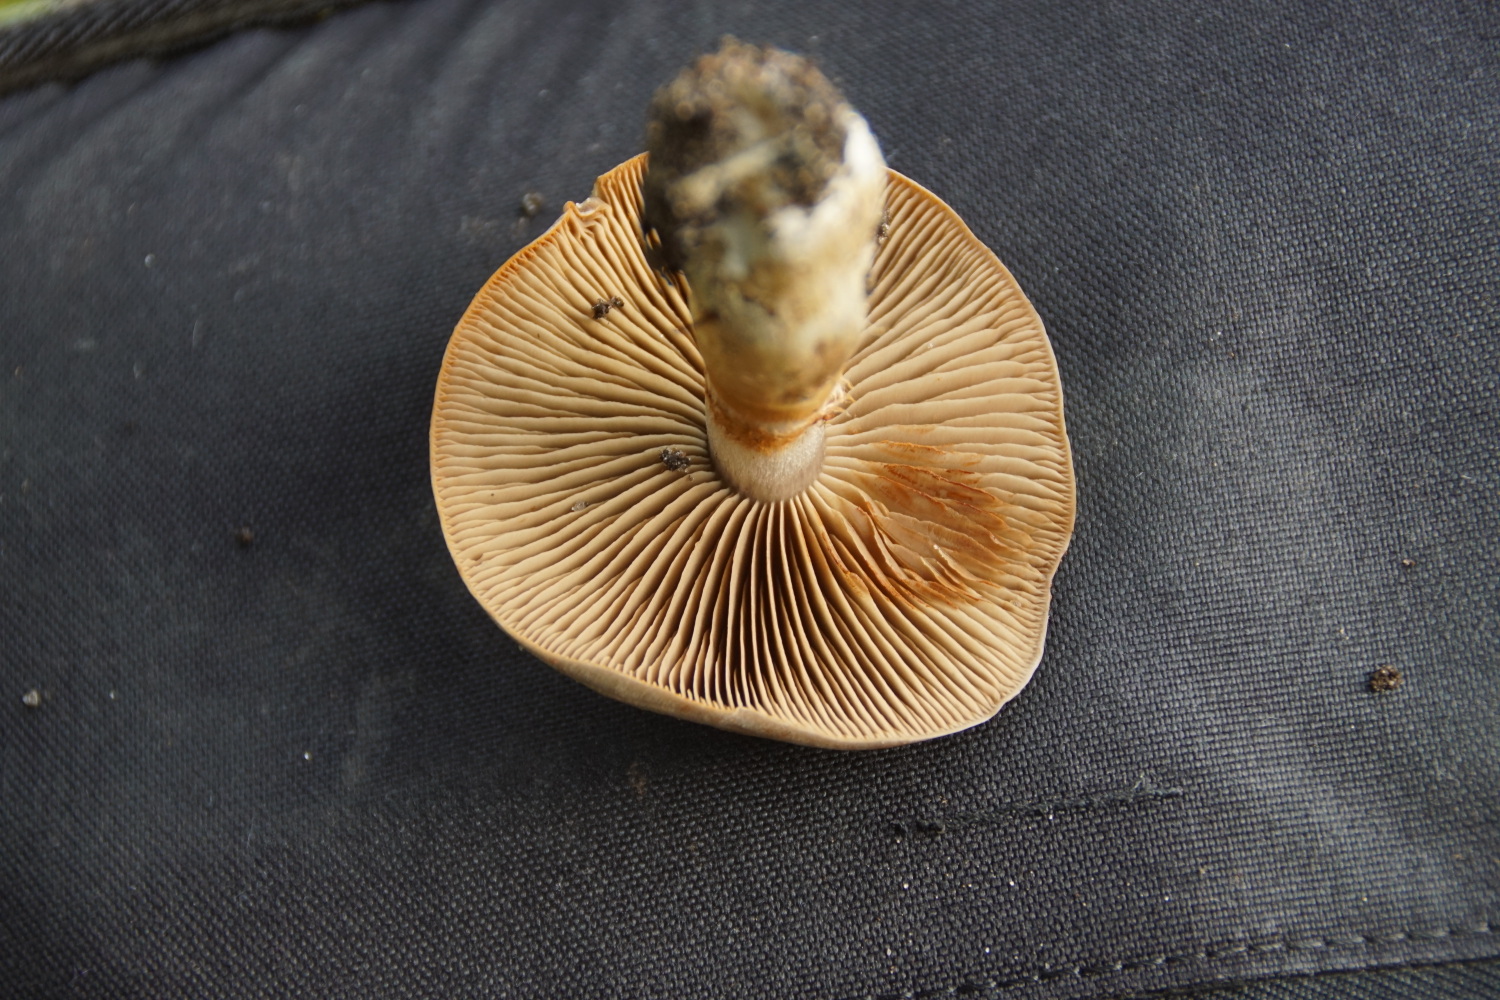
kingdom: Fungi
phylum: Basidiomycota
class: Agaricomycetes
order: Agaricales
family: Cortinariaceae
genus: Cortinarius
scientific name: Cortinarius
